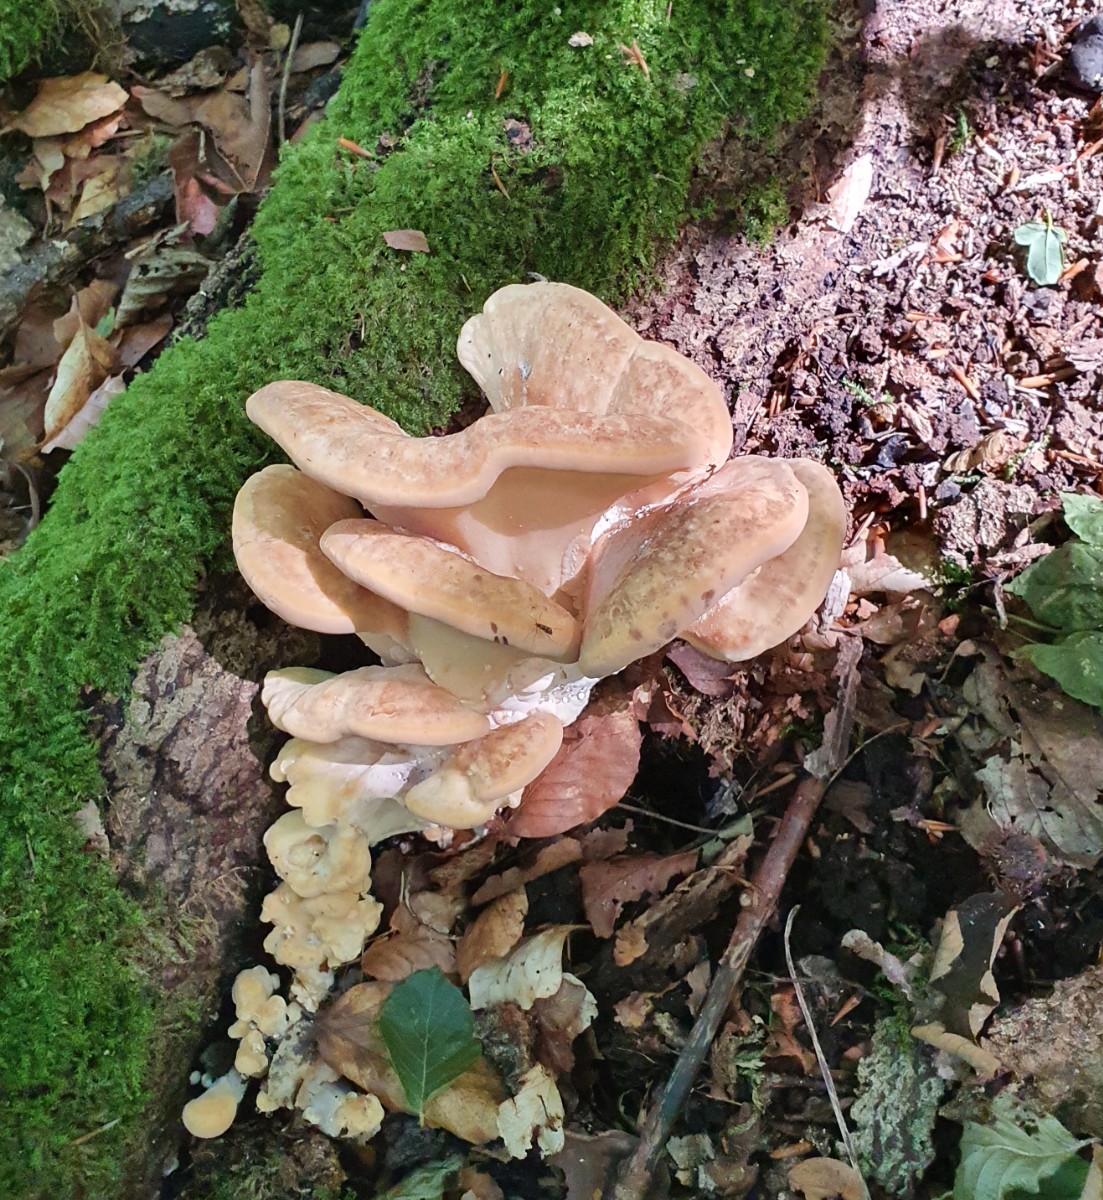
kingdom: Fungi
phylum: Basidiomycota
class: Agaricomycetes
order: Polyporales
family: Meripilaceae
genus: Meripilus
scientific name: Meripilus giganteus
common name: kæmpeporesvamp
